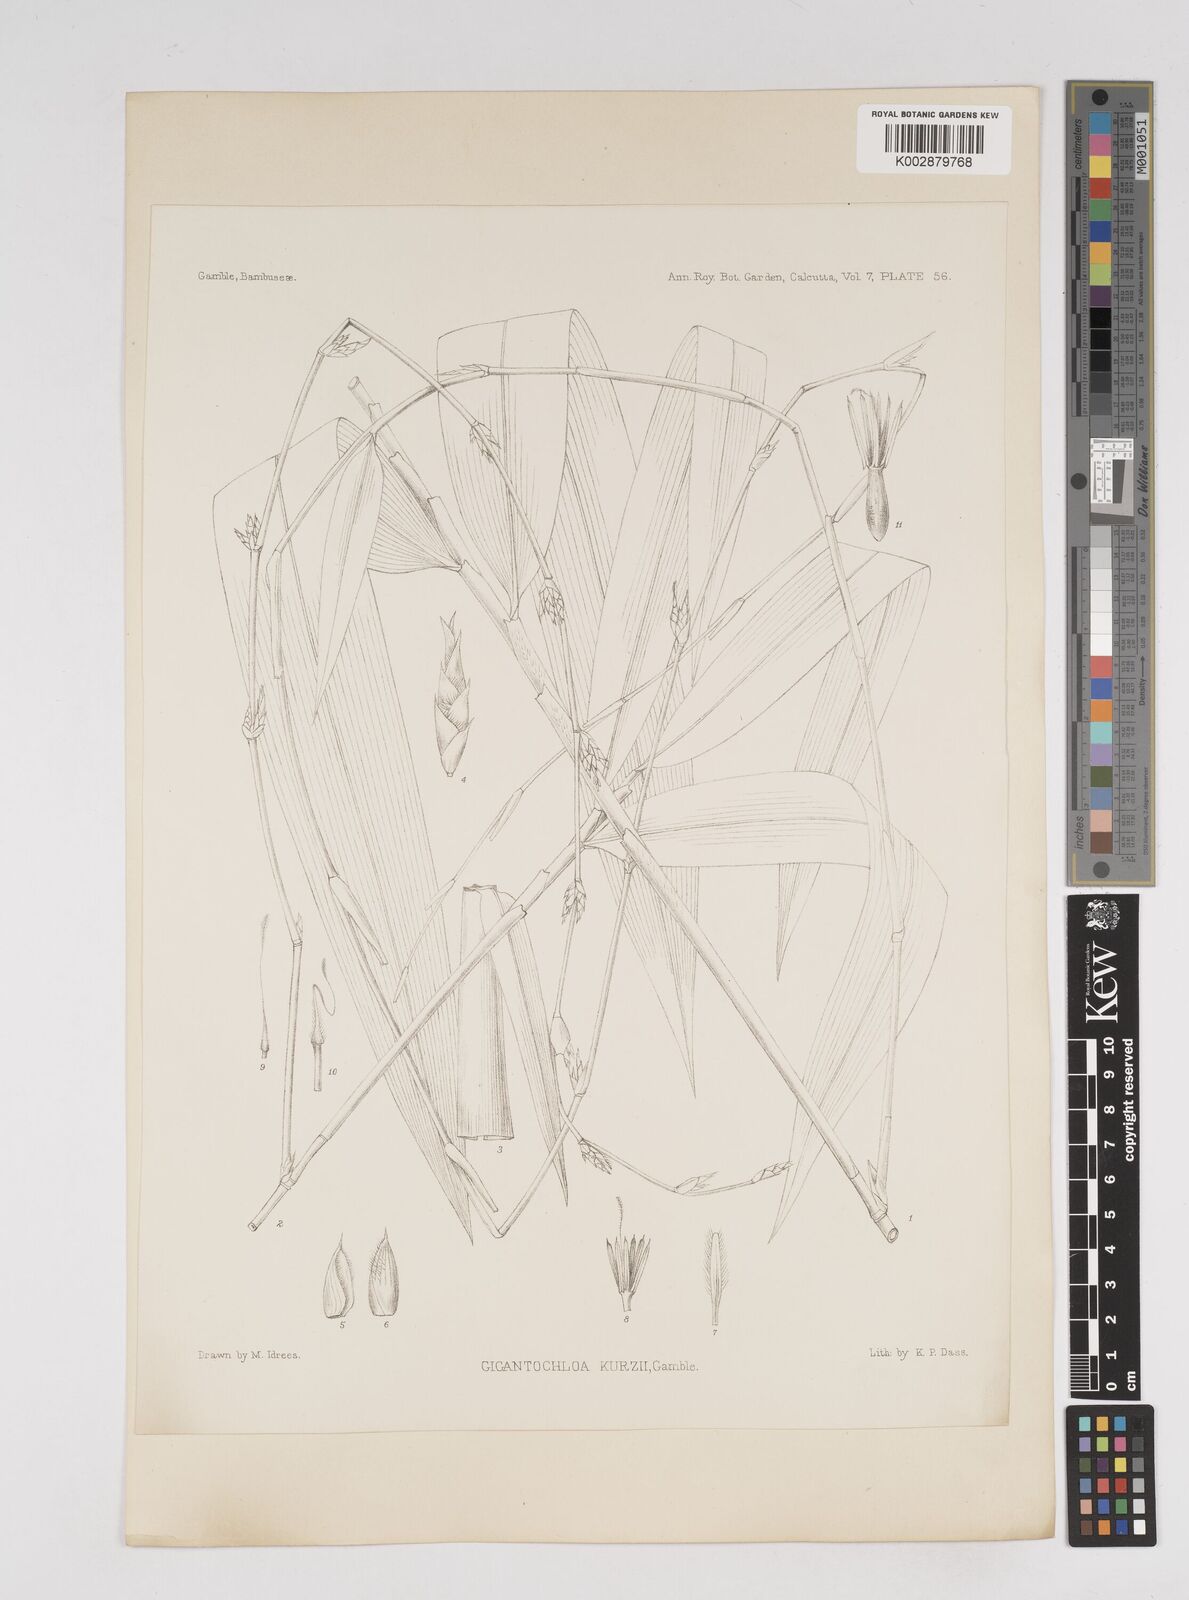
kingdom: Plantae
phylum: Tracheophyta
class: Liliopsida
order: Poales
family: Poaceae
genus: Gigantochloa
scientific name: Gigantochloa apus
